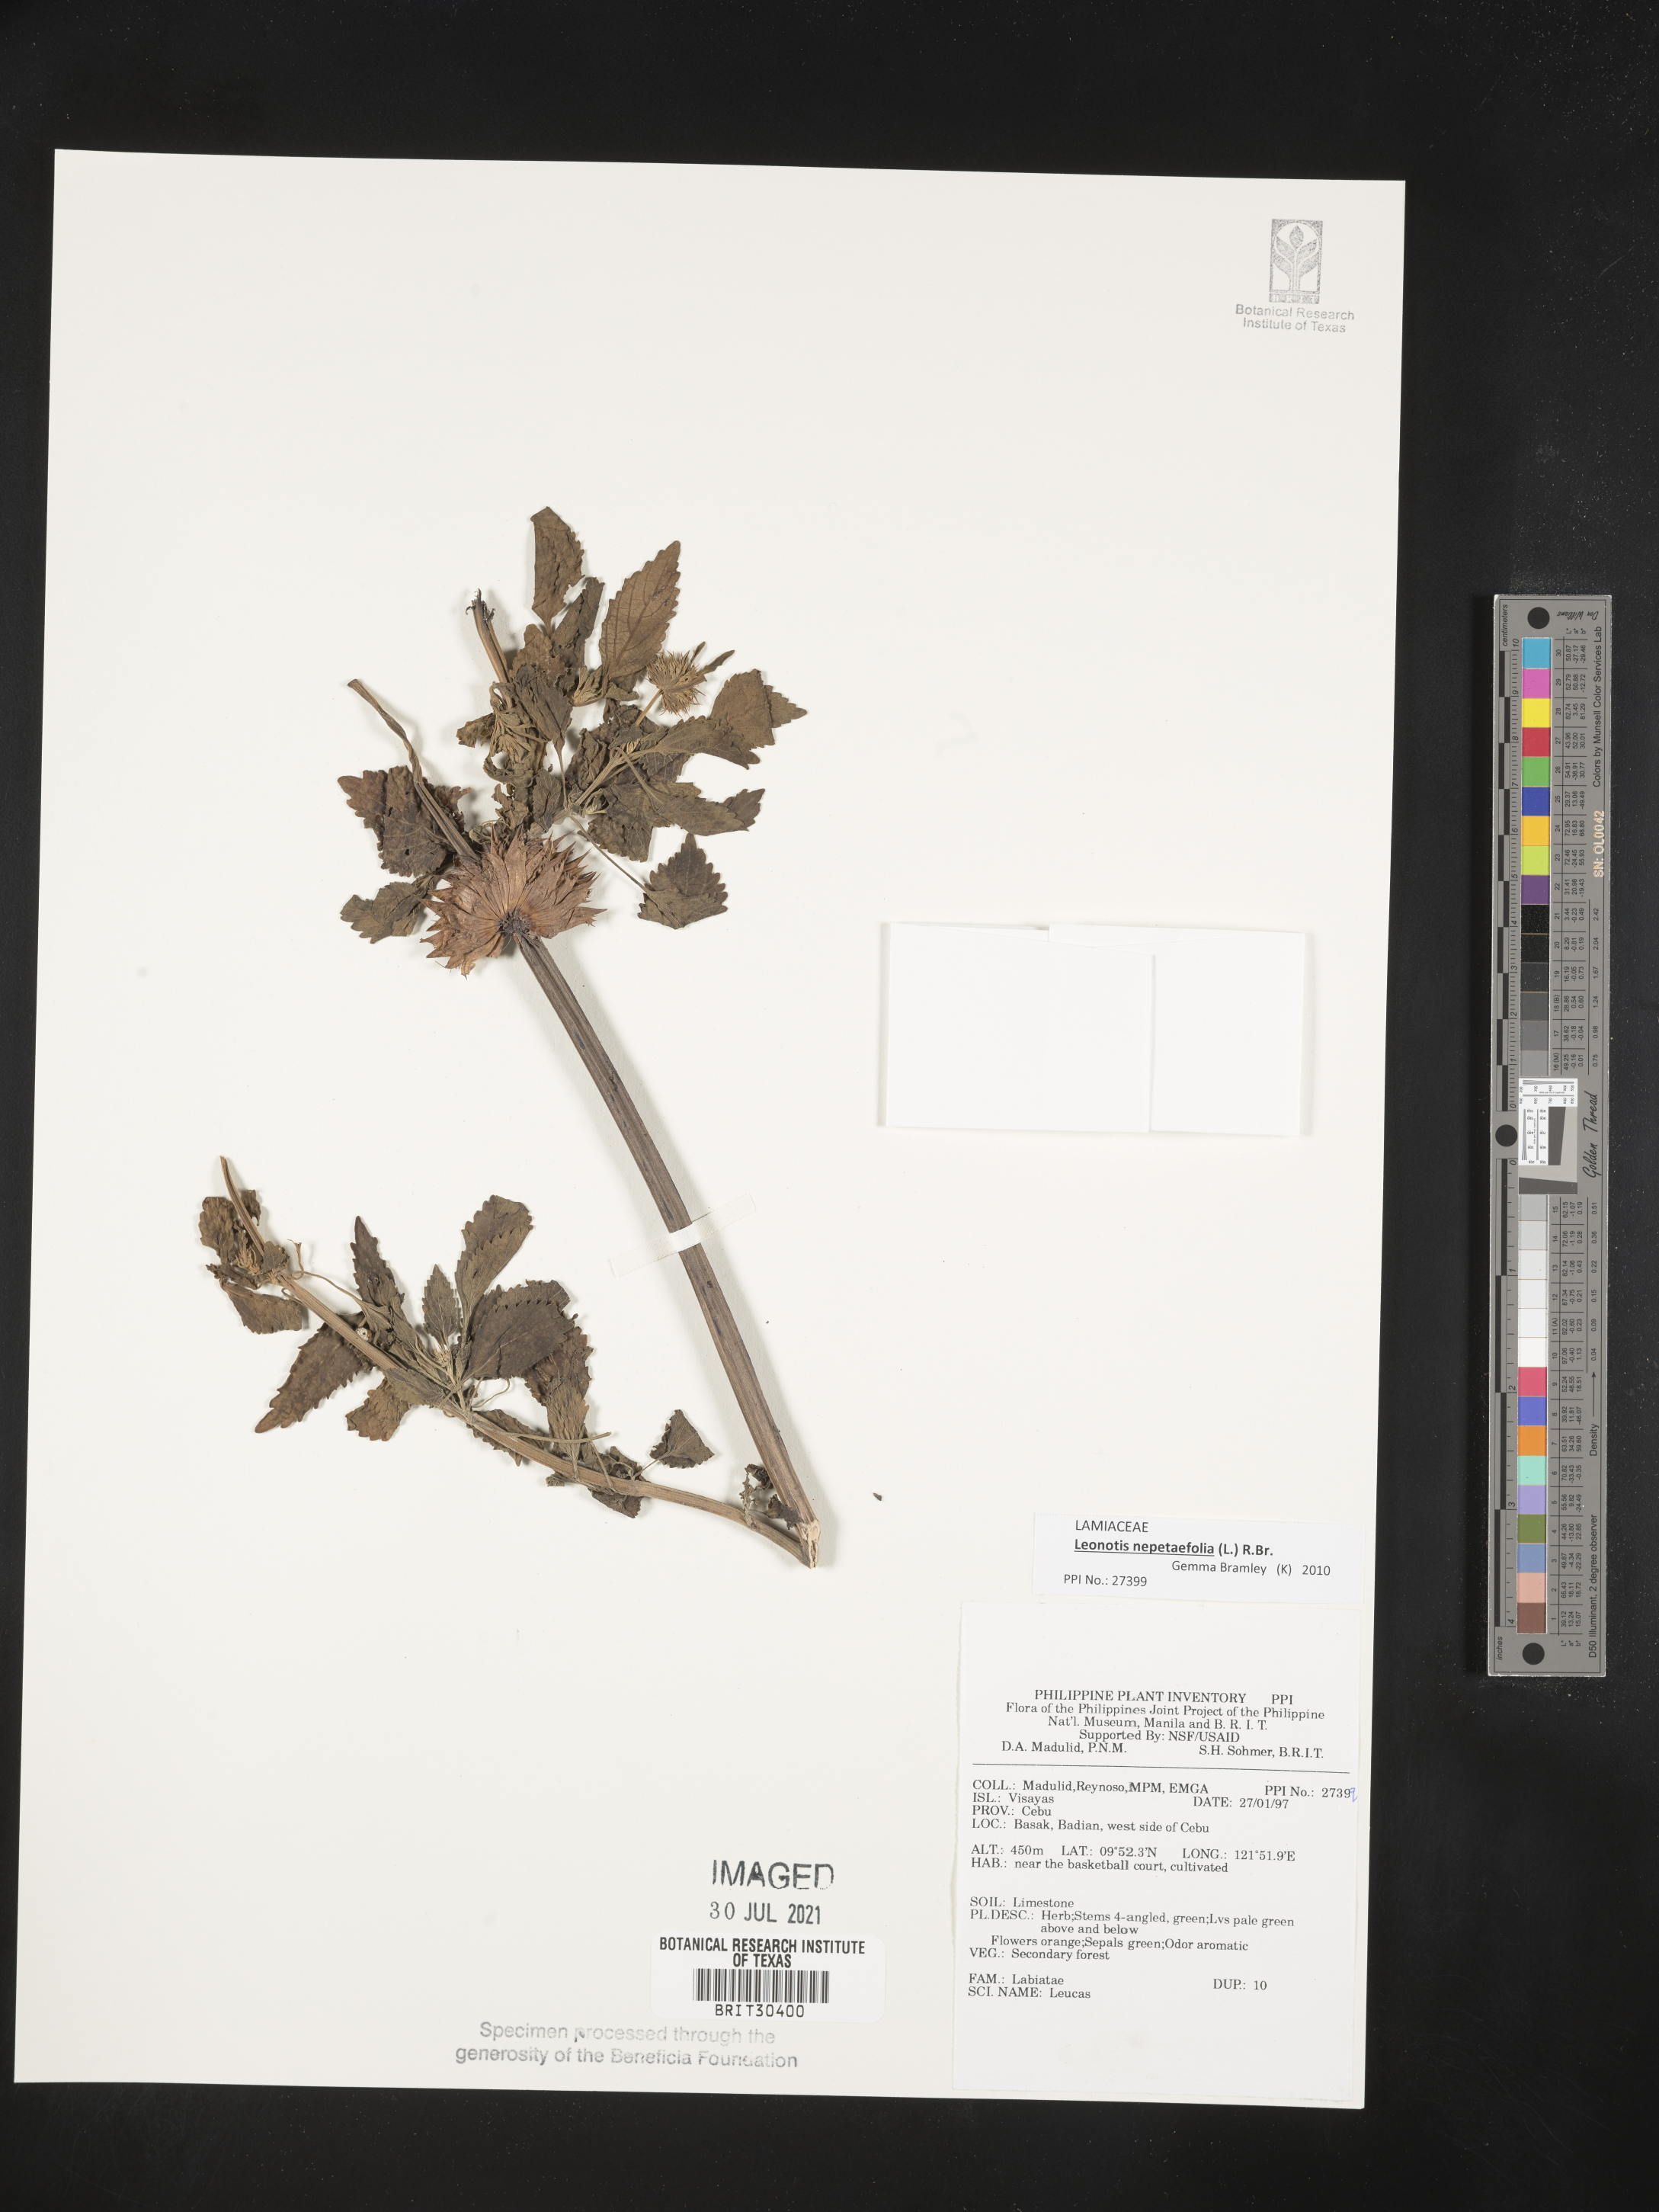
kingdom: Plantae
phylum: Tracheophyta
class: Magnoliopsida
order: Lamiales
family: Lamiaceae
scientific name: Lamiaceae
